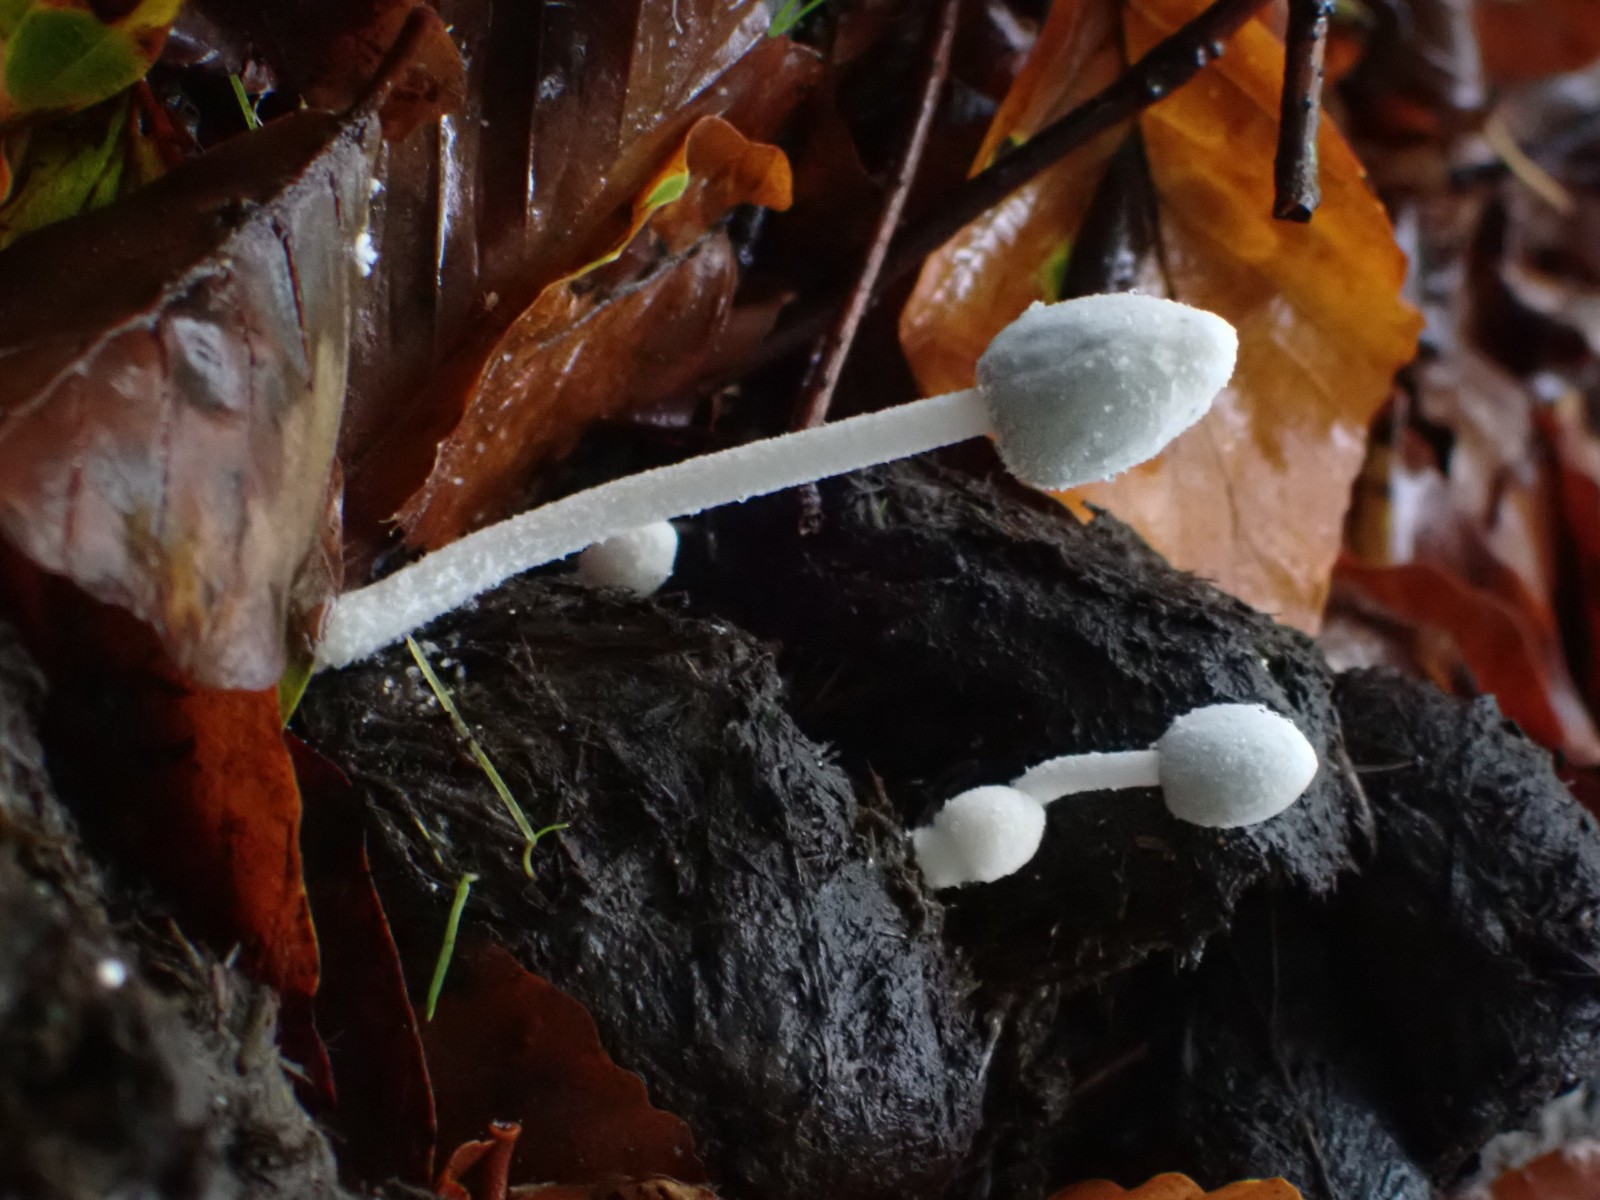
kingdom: Fungi
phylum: Basidiomycota
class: Agaricomycetes
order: Agaricales
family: Psathyrellaceae
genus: Coprinopsis
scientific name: Coprinopsis nivea
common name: snehvid blækhat
